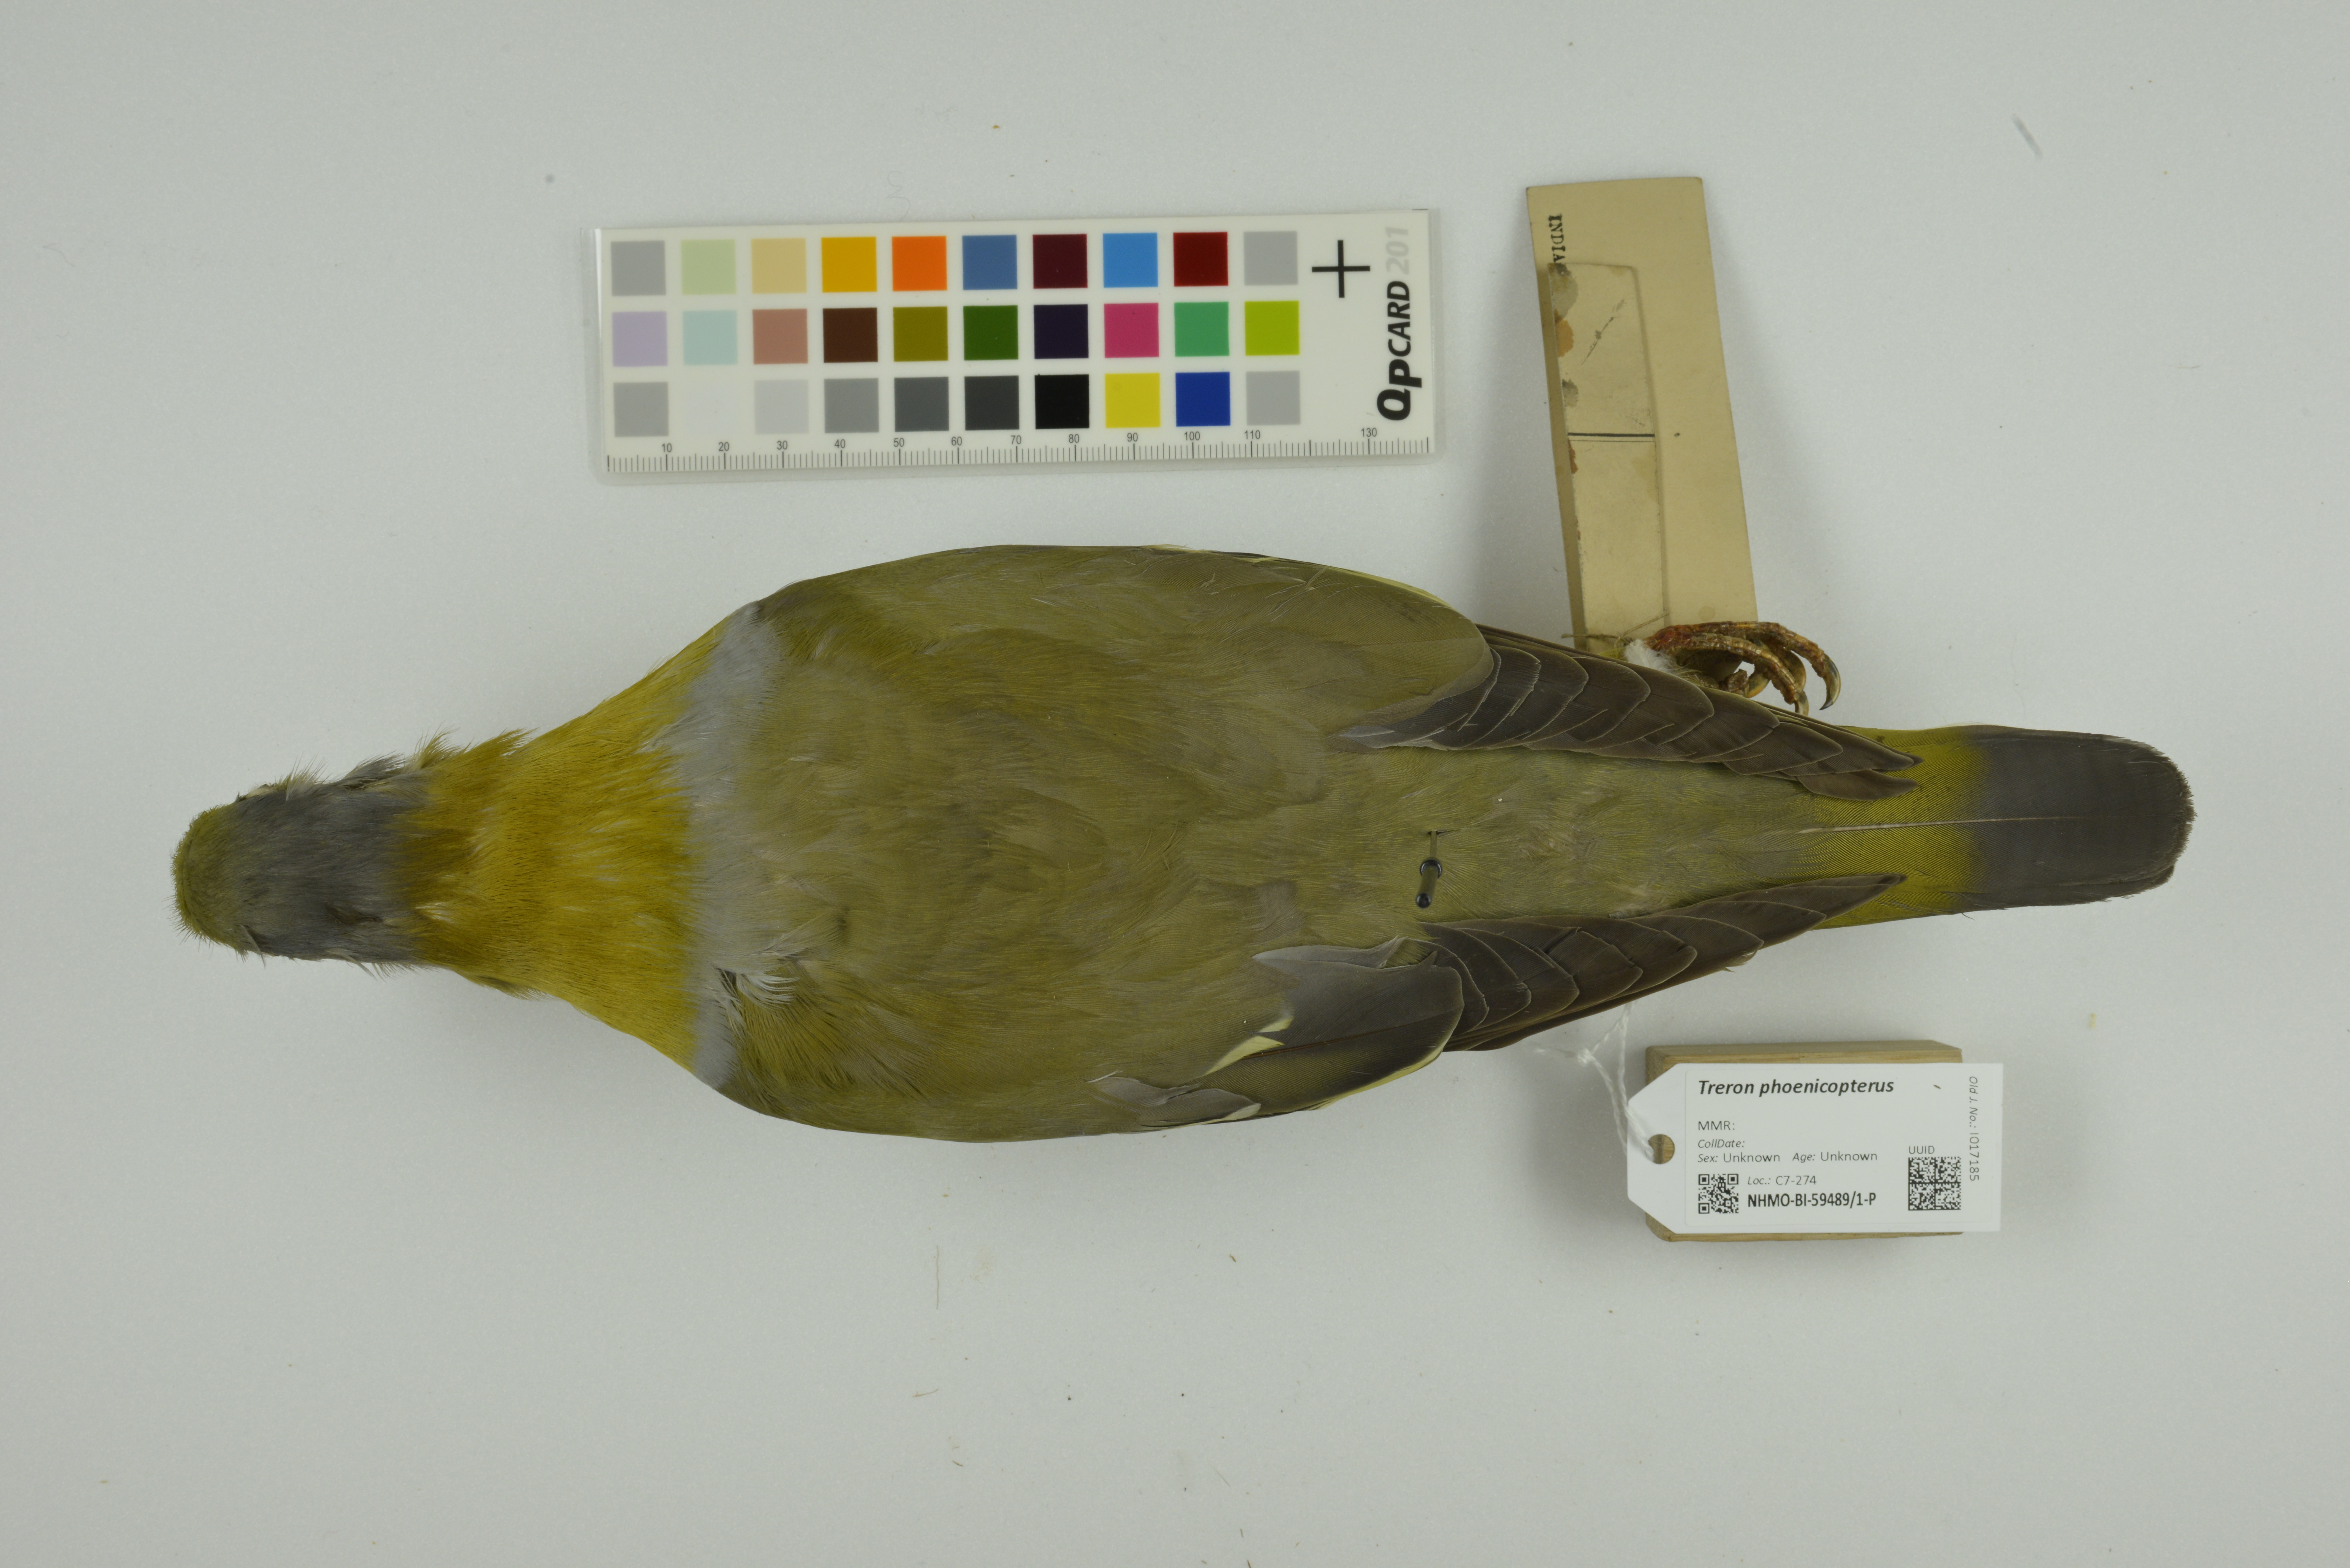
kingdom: Animalia
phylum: Chordata
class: Aves
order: Columbiformes
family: Columbidae
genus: Treron
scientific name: Treron phoenicopterus
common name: Yellow-footed green pigeon
